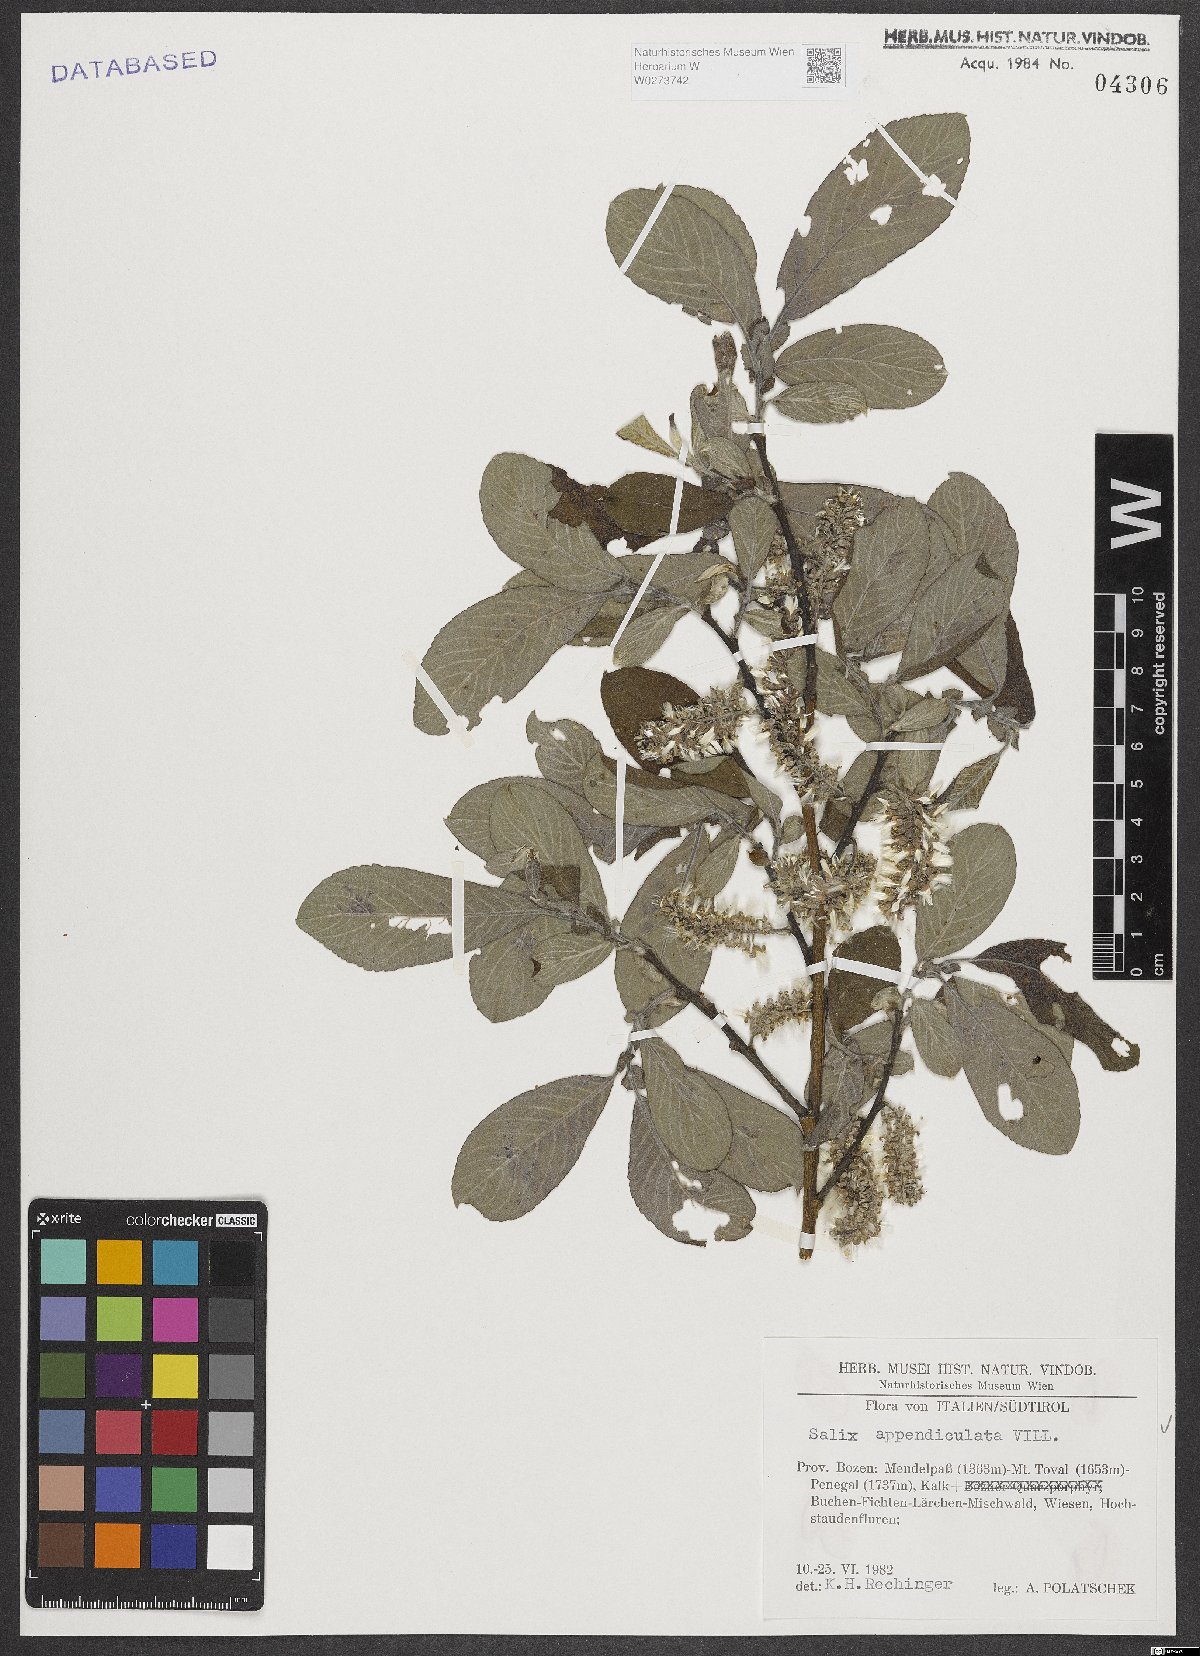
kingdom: Plantae
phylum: Tracheophyta
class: Magnoliopsida
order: Malpighiales
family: Salicaceae
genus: Salix
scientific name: Salix appendiculata
